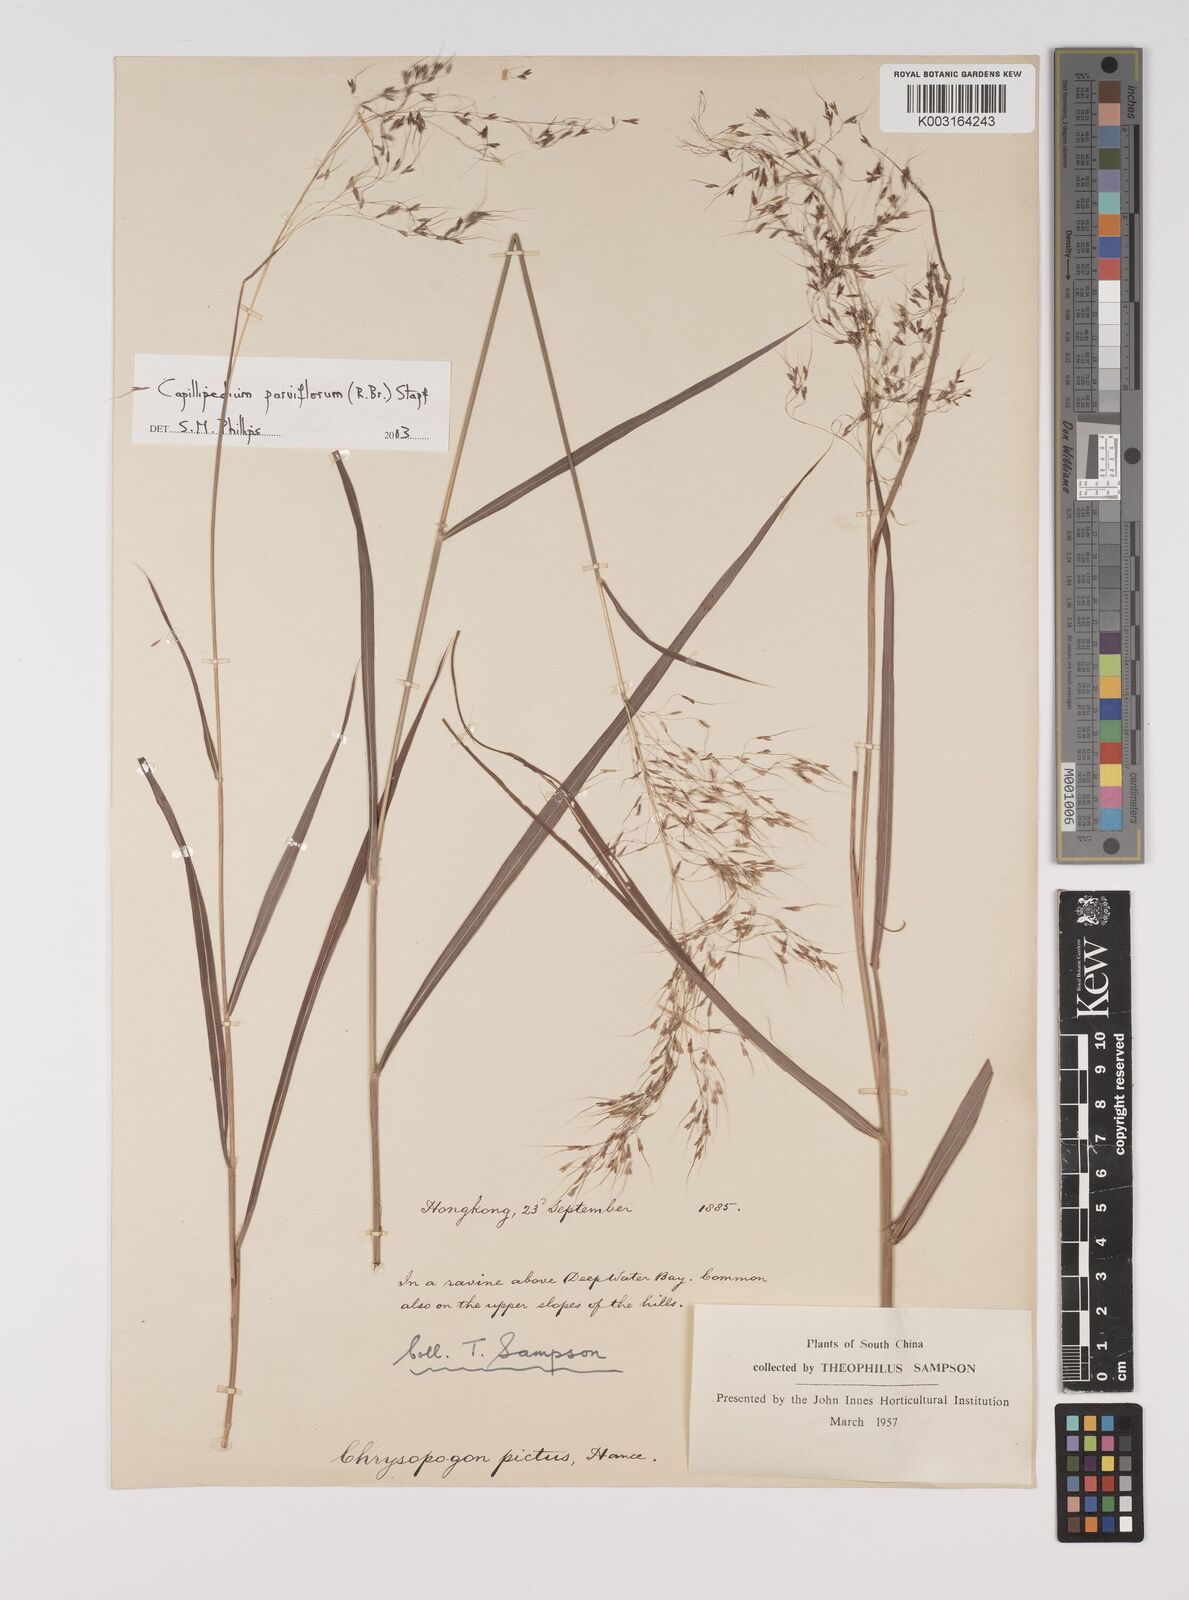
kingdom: Plantae
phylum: Tracheophyta
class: Liliopsida
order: Poales
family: Poaceae
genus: Capillipedium
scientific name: Capillipedium parviflorum
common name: Golden-beard
